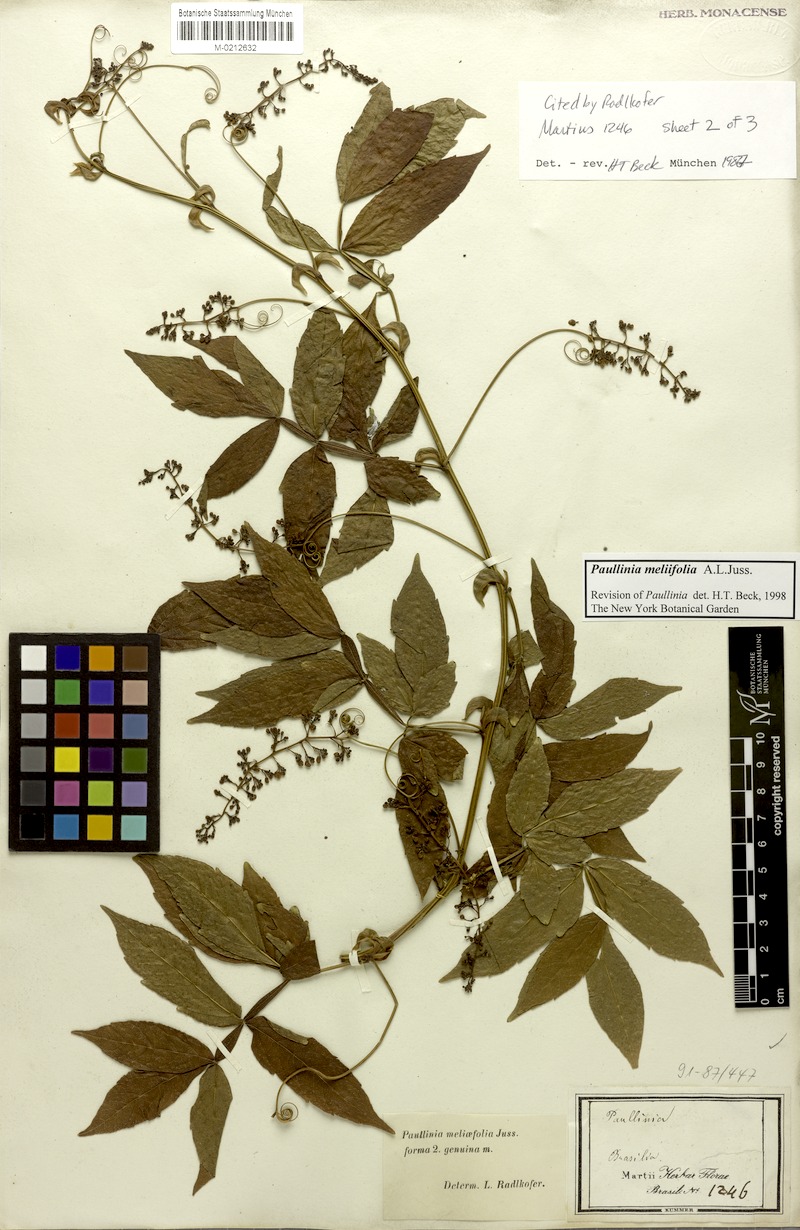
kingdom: Plantae
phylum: Tracheophyta
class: Magnoliopsida
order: Sapindales
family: Sapindaceae
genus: Paullinia
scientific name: Paullinia meliifolia
